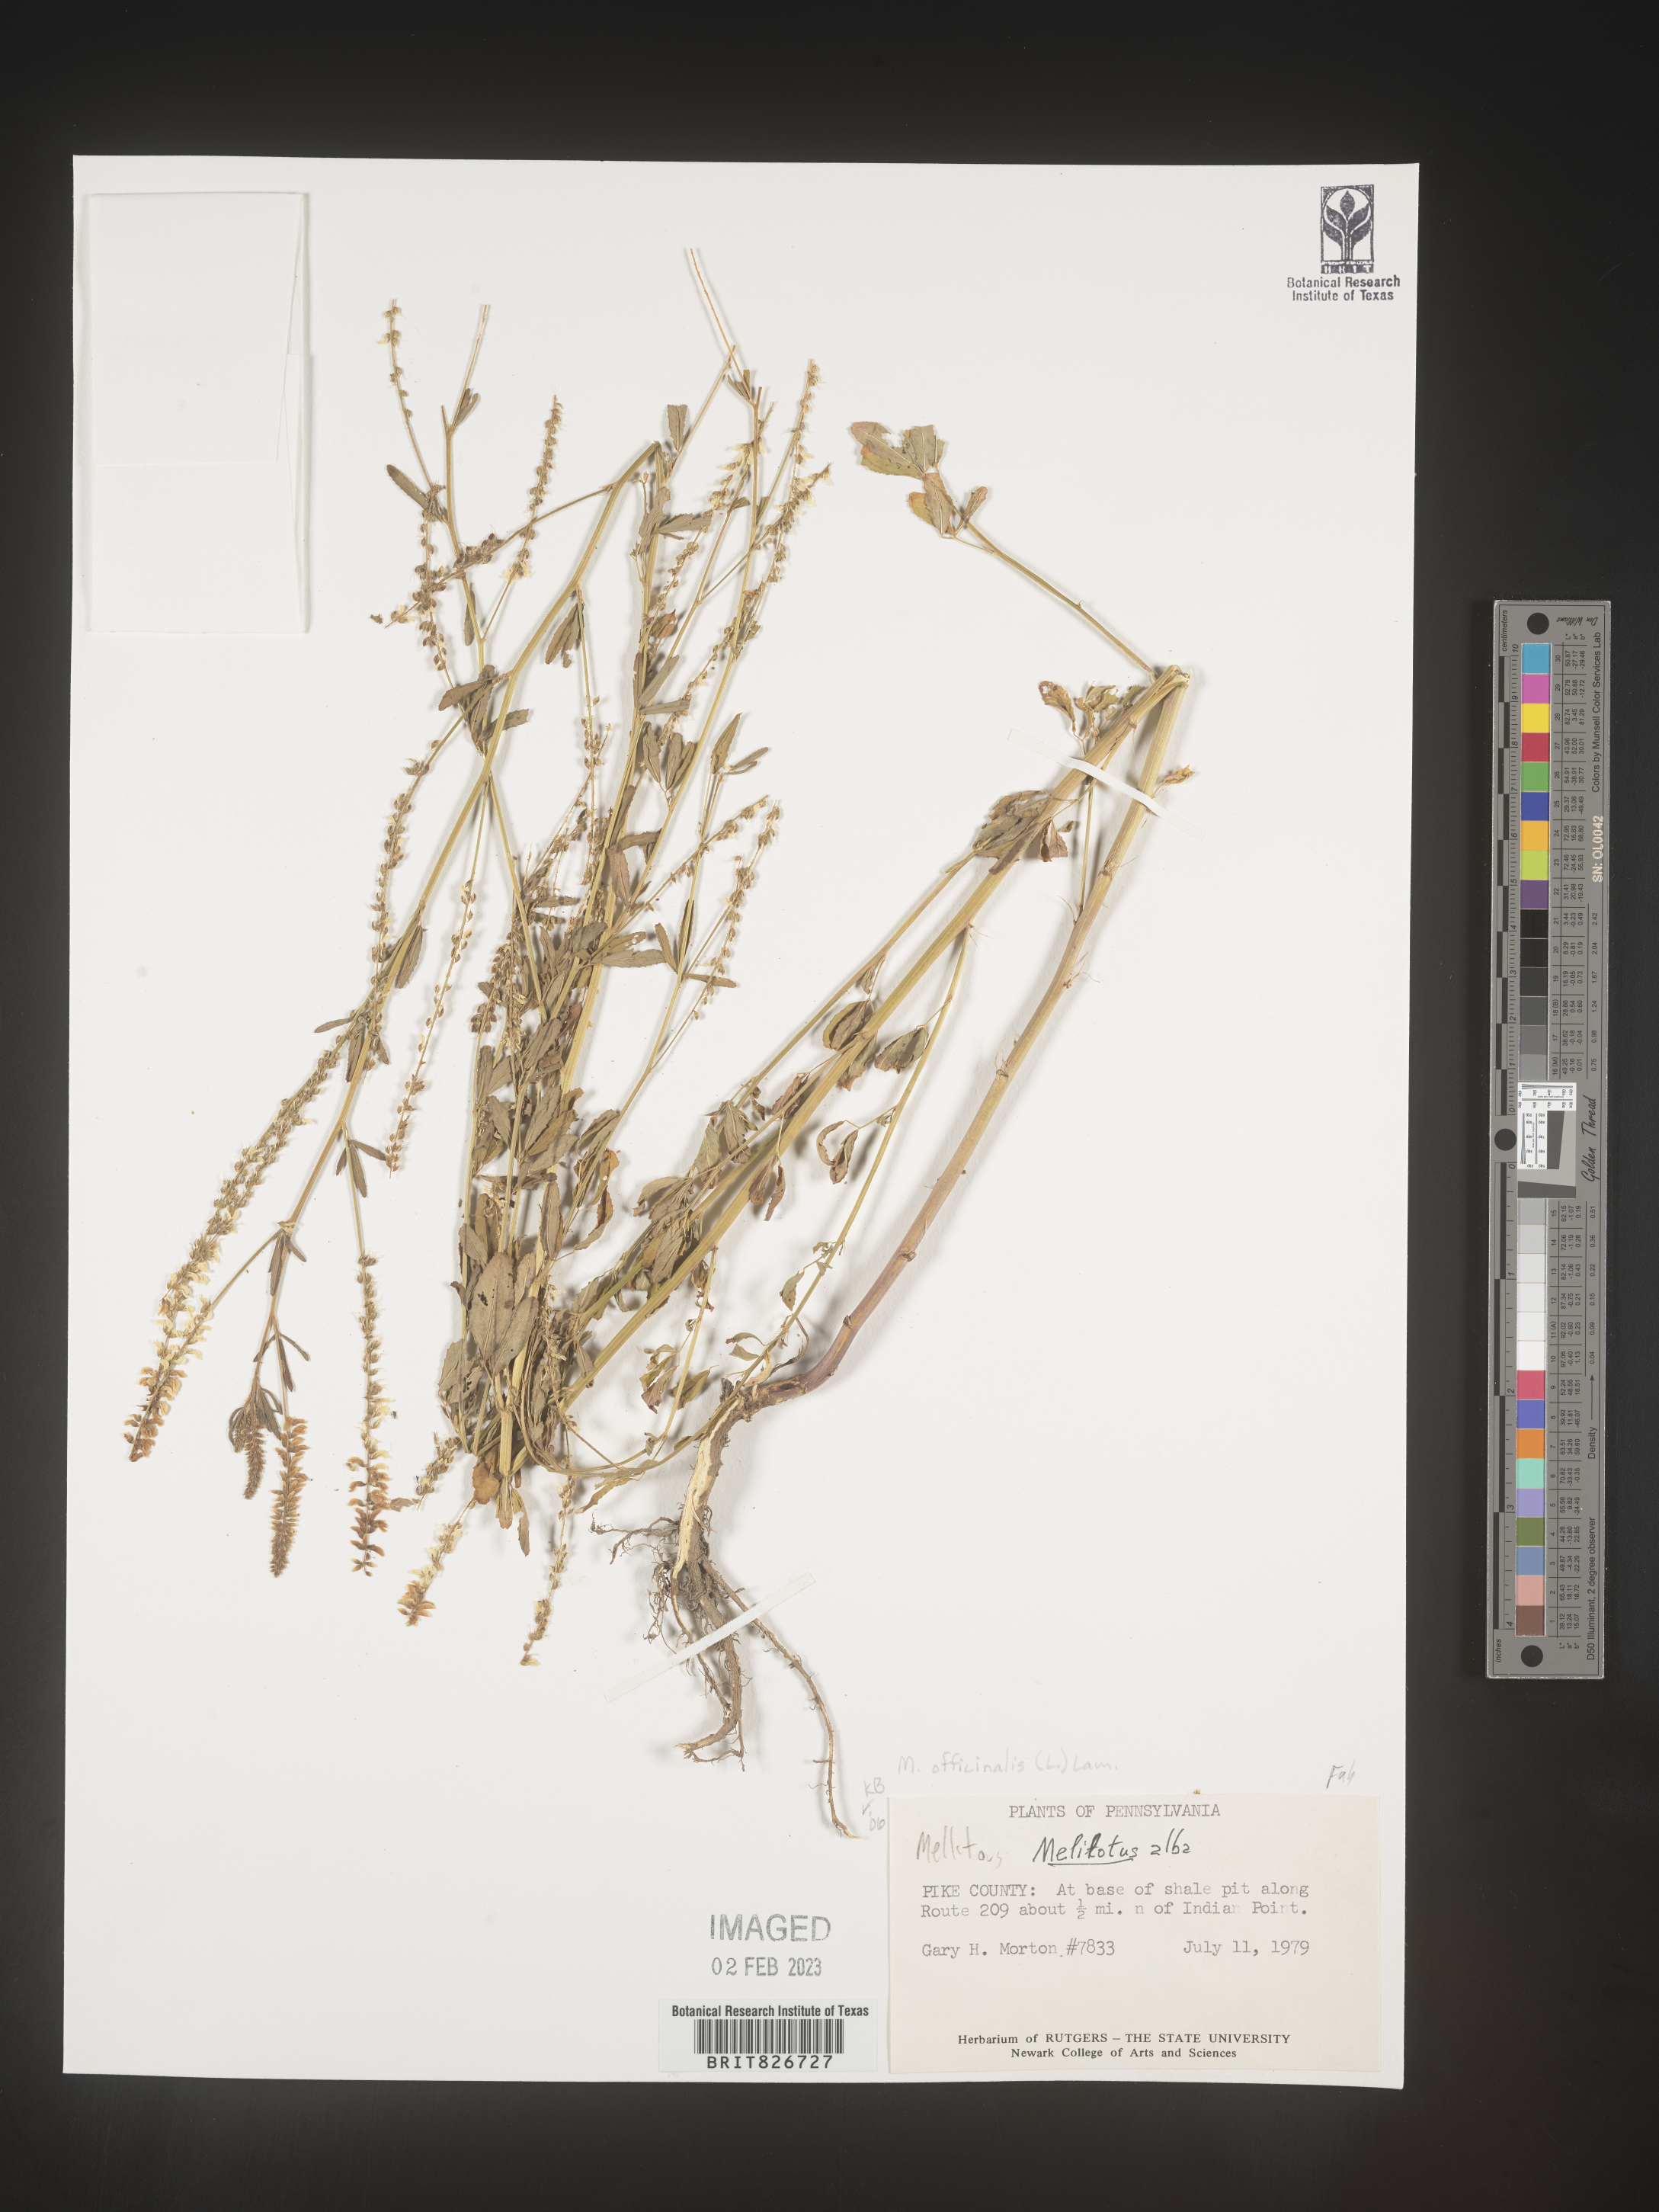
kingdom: Plantae
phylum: Tracheophyta
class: Magnoliopsida
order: Fabales
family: Fabaceae
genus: Melilotus
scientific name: Melilotus albus
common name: White melilot
